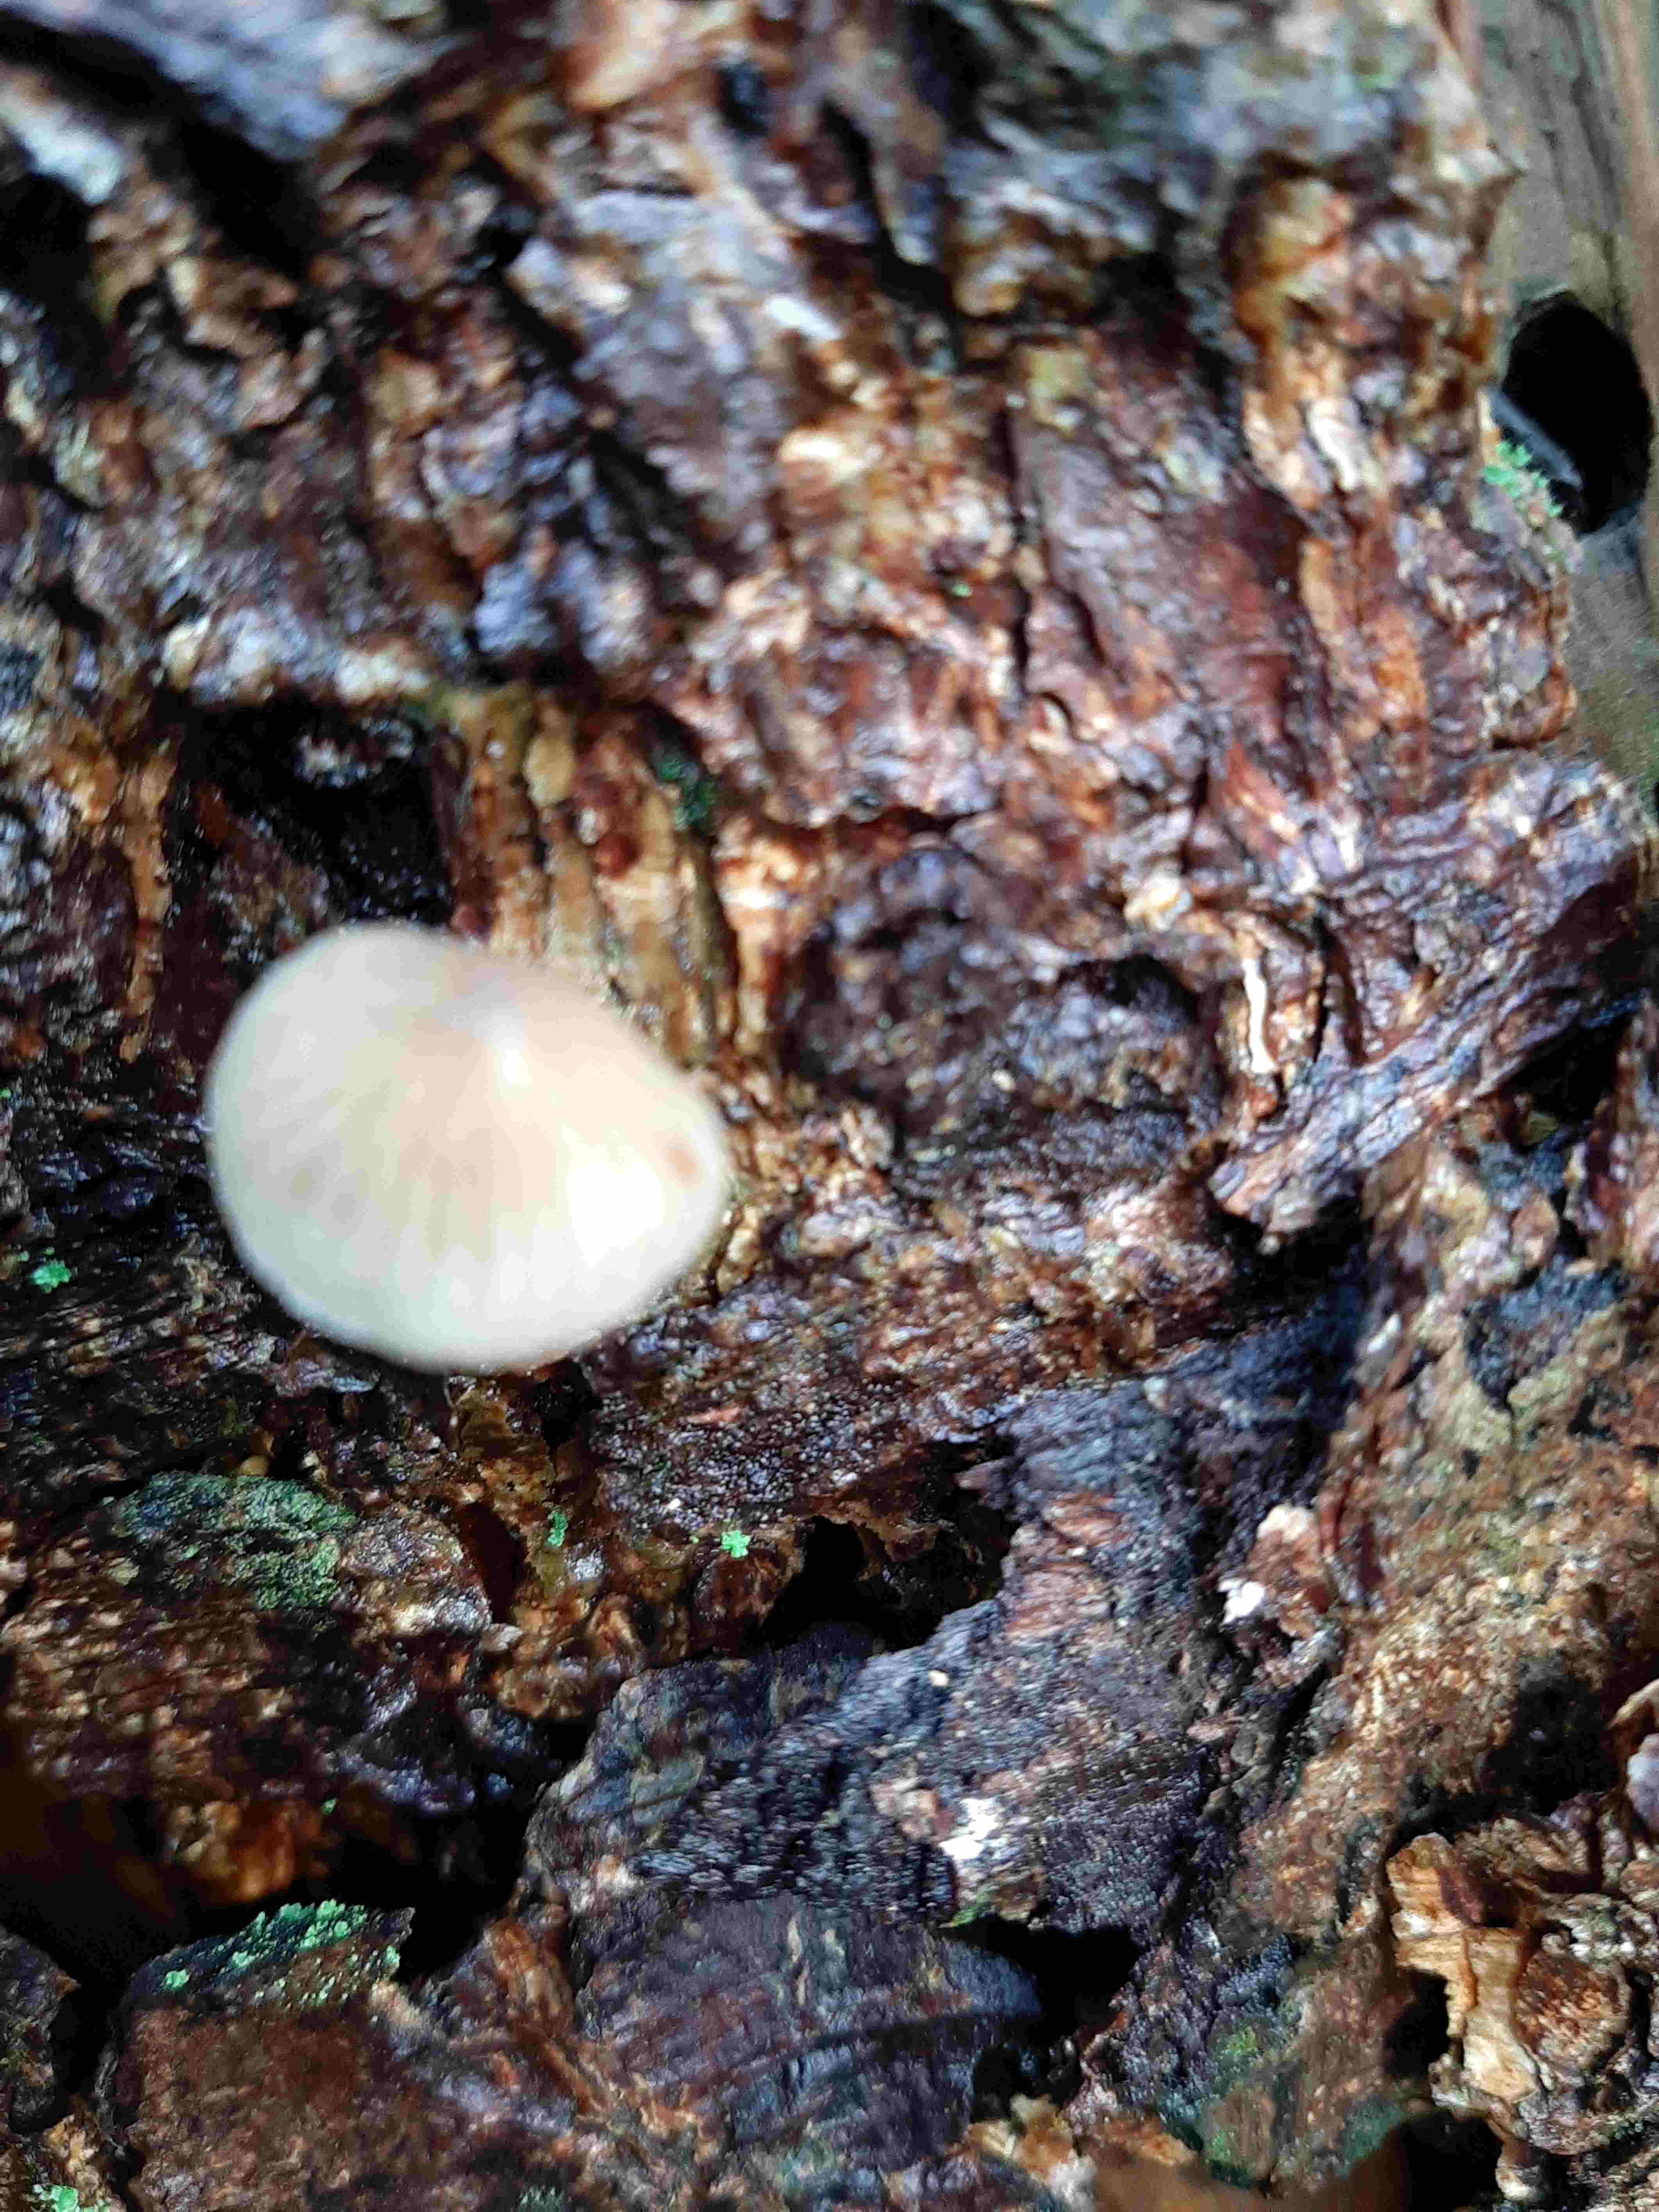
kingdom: Fungi
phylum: Basidiomycota
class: Agaricomycetes
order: Agaricales
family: Mycenaceae
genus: Mycena
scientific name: Mycena
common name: huesvamp
